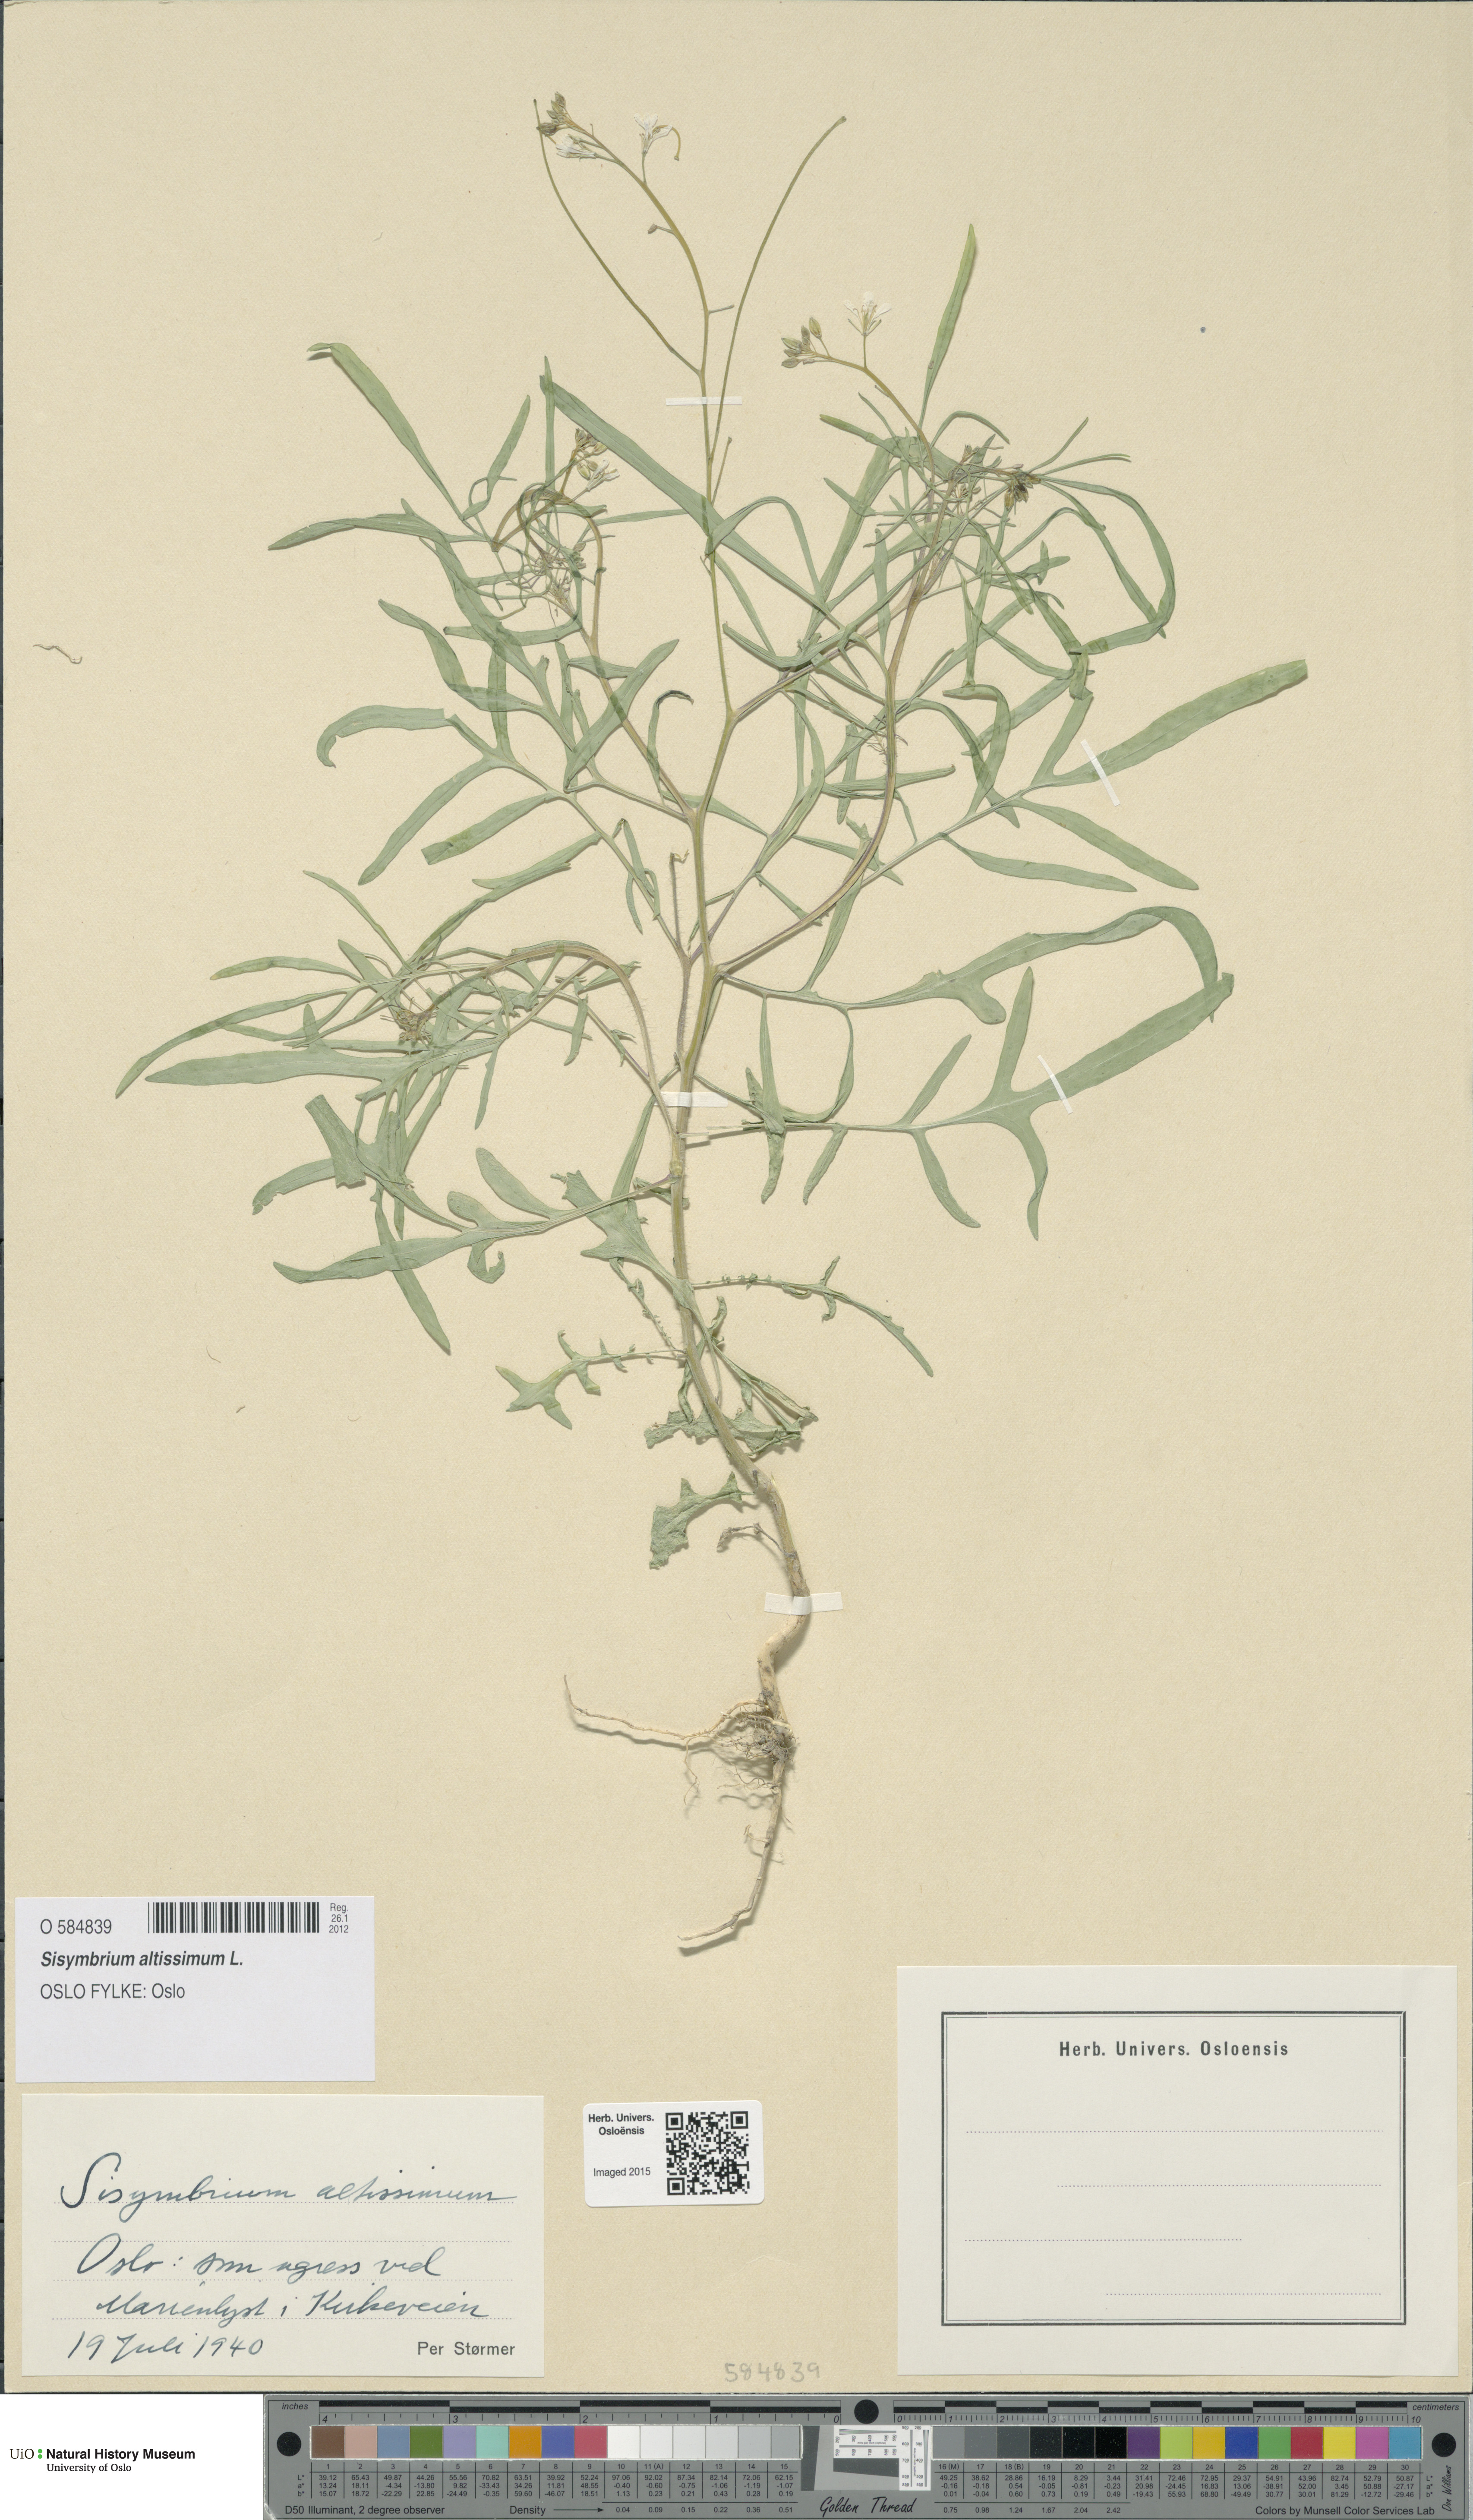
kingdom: Plantae
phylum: Tracheophyta
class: Magnoliopsida
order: Brassicales
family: Brassicaceae
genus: Sisymbrium
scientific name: Sisymbrium altissimum
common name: Tall rocket
